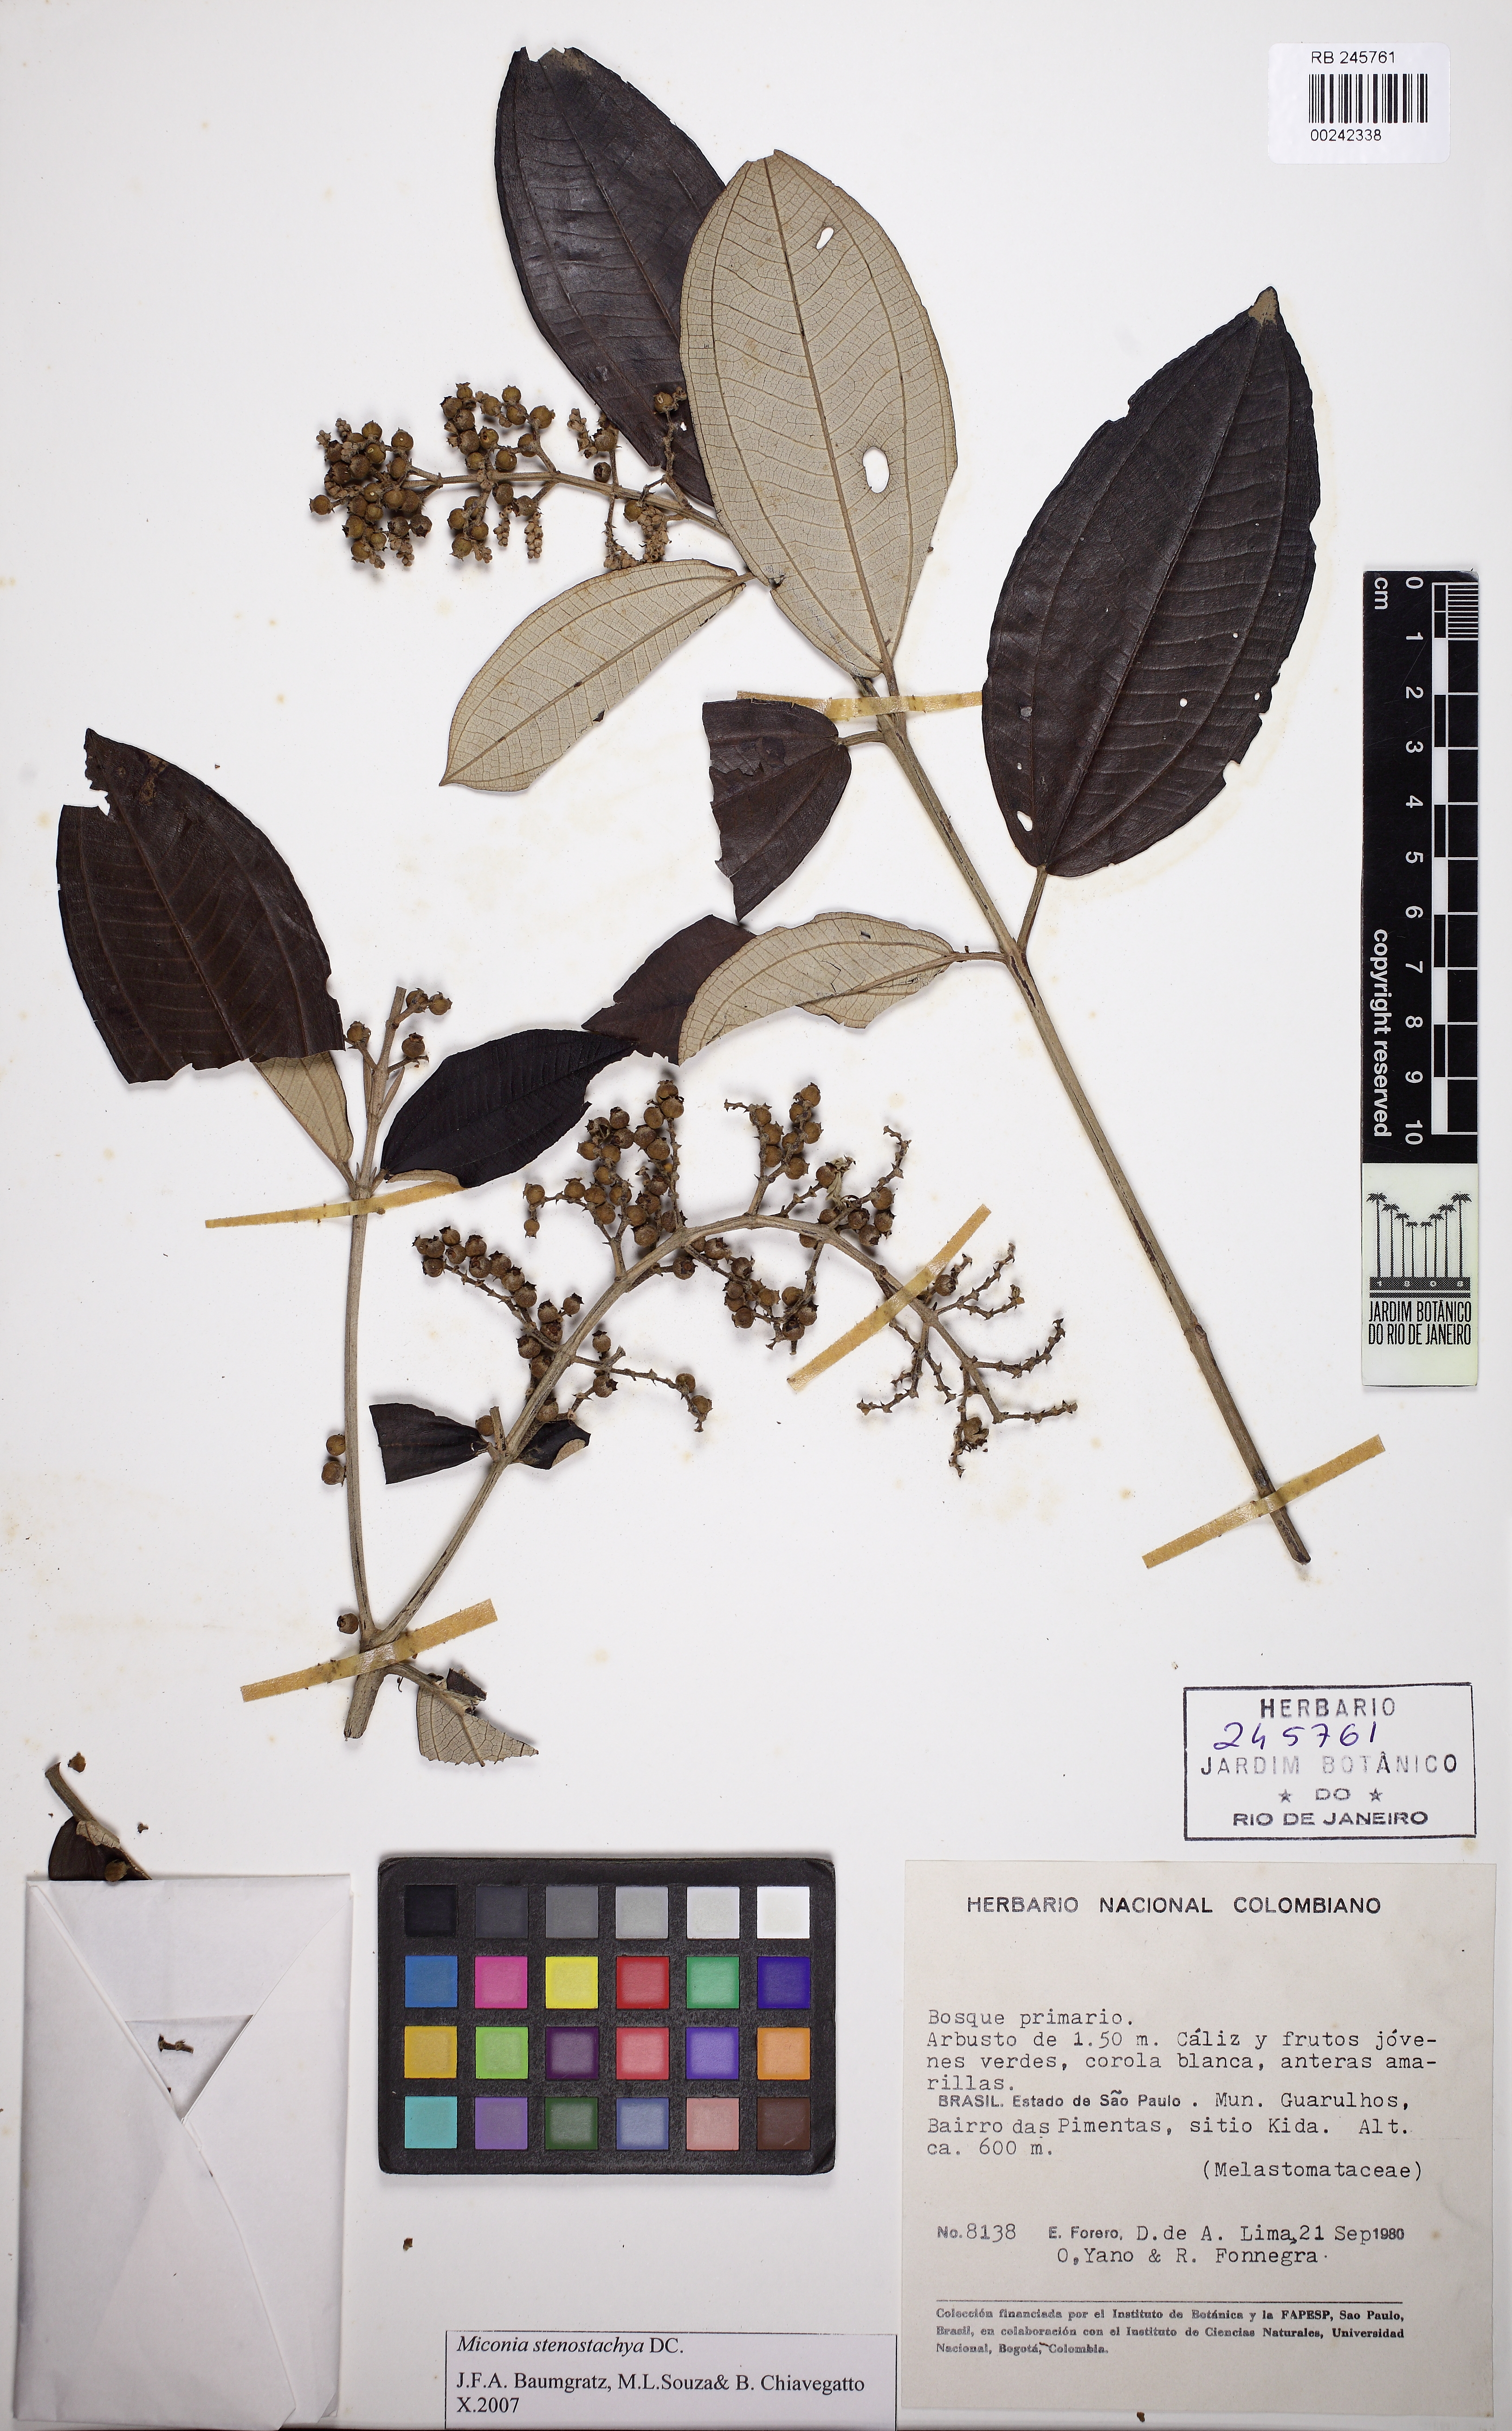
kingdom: Plantae
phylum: Tracheophyta
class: Magnoliopsida
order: Myrtales
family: Melastomataceae
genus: Miconia
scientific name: Miconia stenostachya
